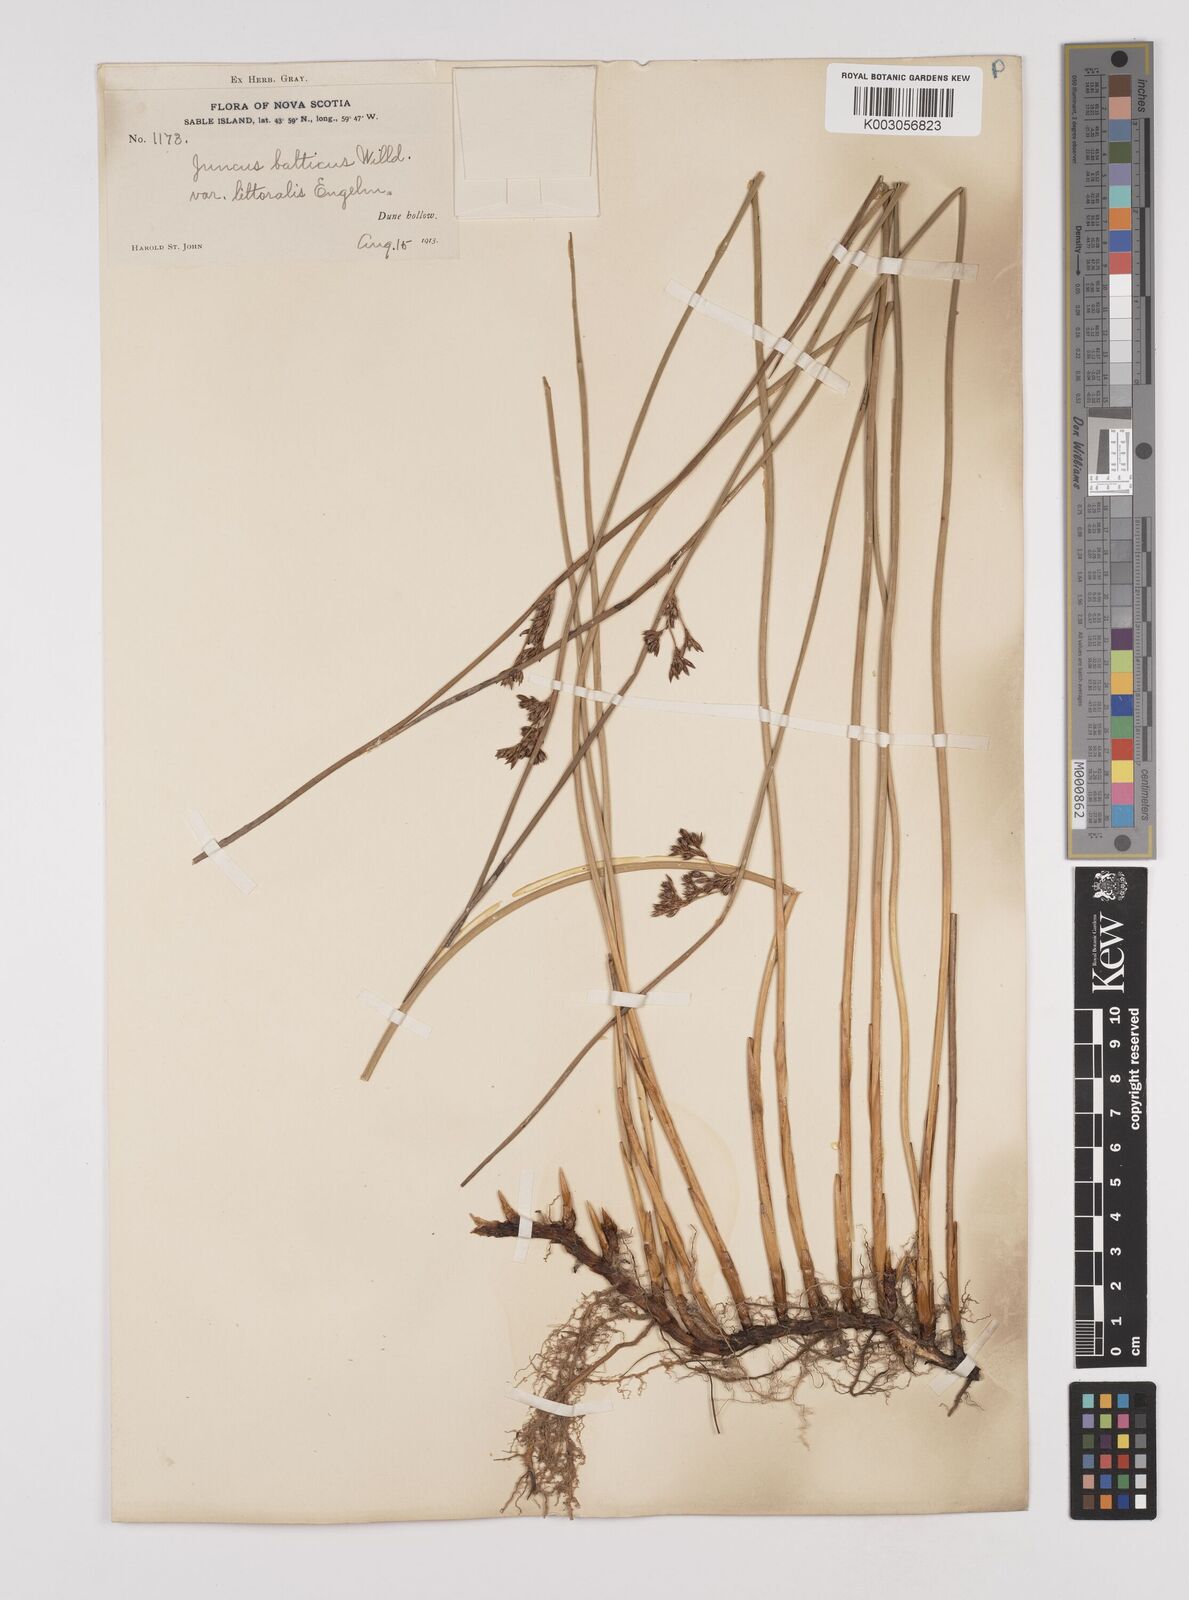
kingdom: Plantae
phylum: Tracheophyta
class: Liliopsida
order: Poales
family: Juncaceae
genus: Juncus
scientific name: Juncus balticus
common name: Baltic rush
